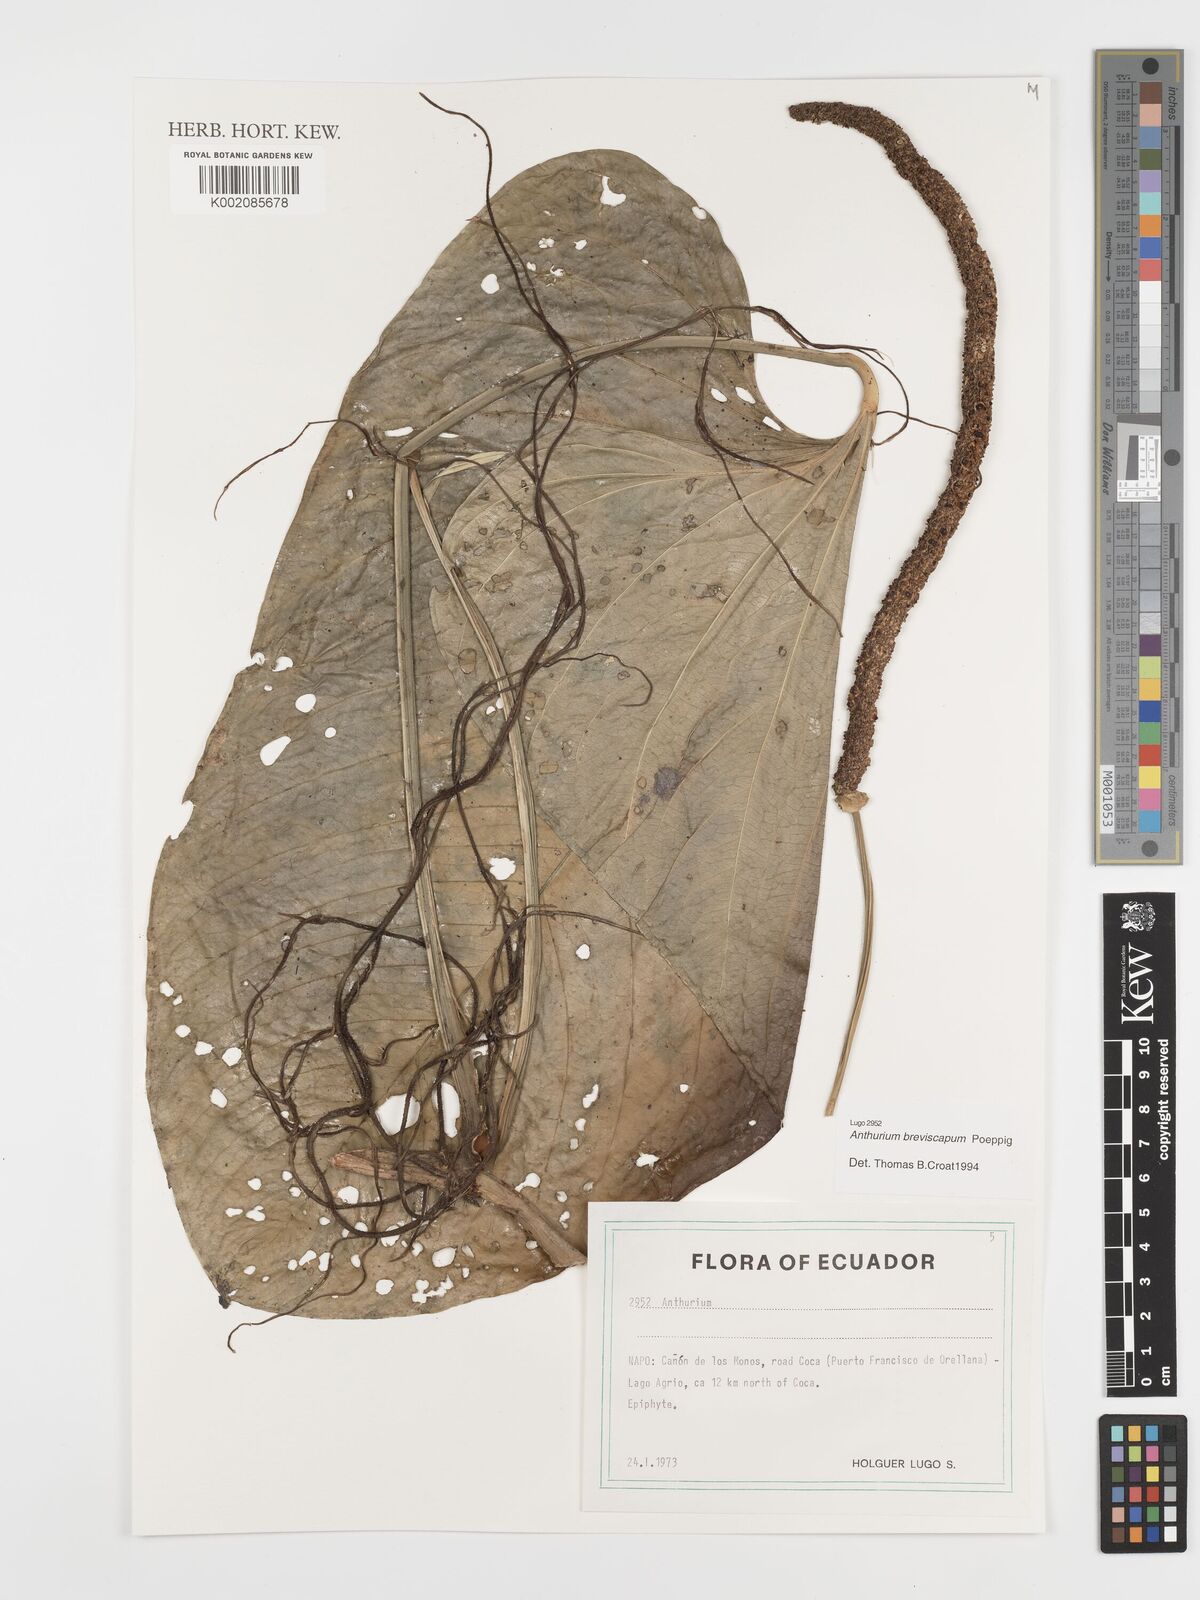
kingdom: Plantae
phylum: Tracheophyta
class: Liliopsida
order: Alismatales
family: Araceae
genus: Anthurium
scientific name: Anthurium breviscapum
